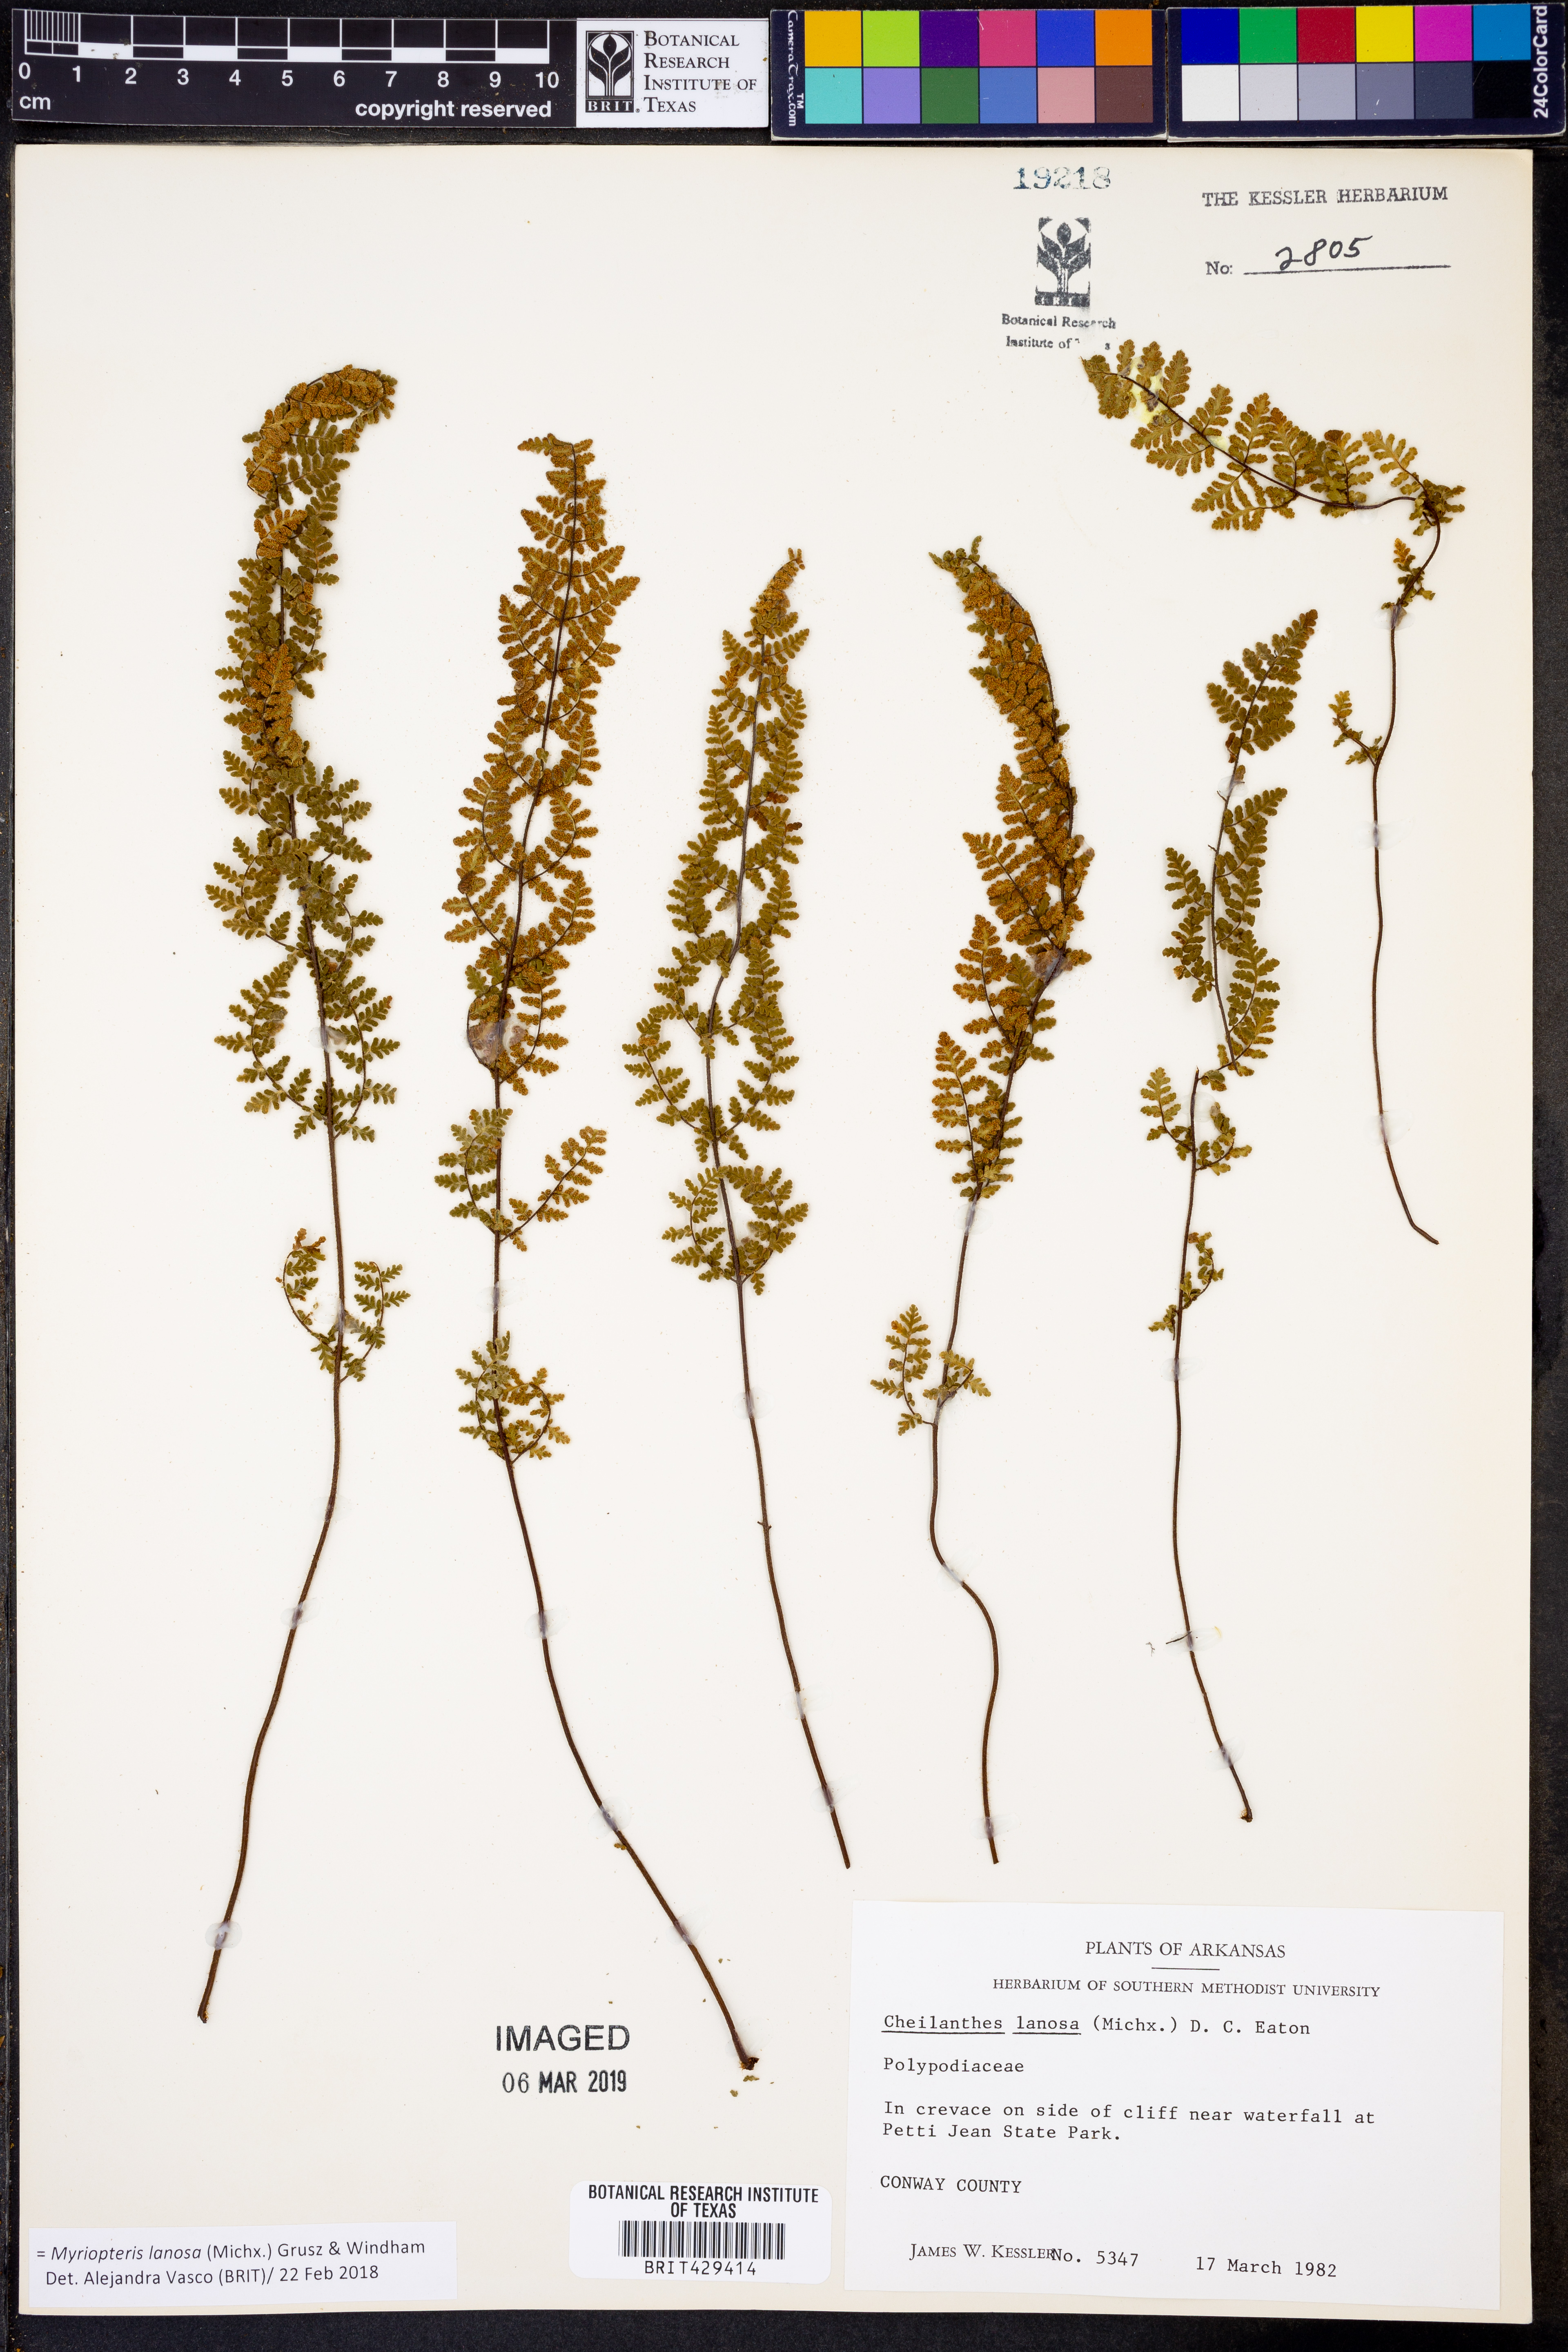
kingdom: Plantae
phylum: Tracheophyta
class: Polypodiopsida
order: Polypodiales
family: Pteridaceae
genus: Myriopteris
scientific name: Myriopteris lanosa
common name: Hairy lip fern
